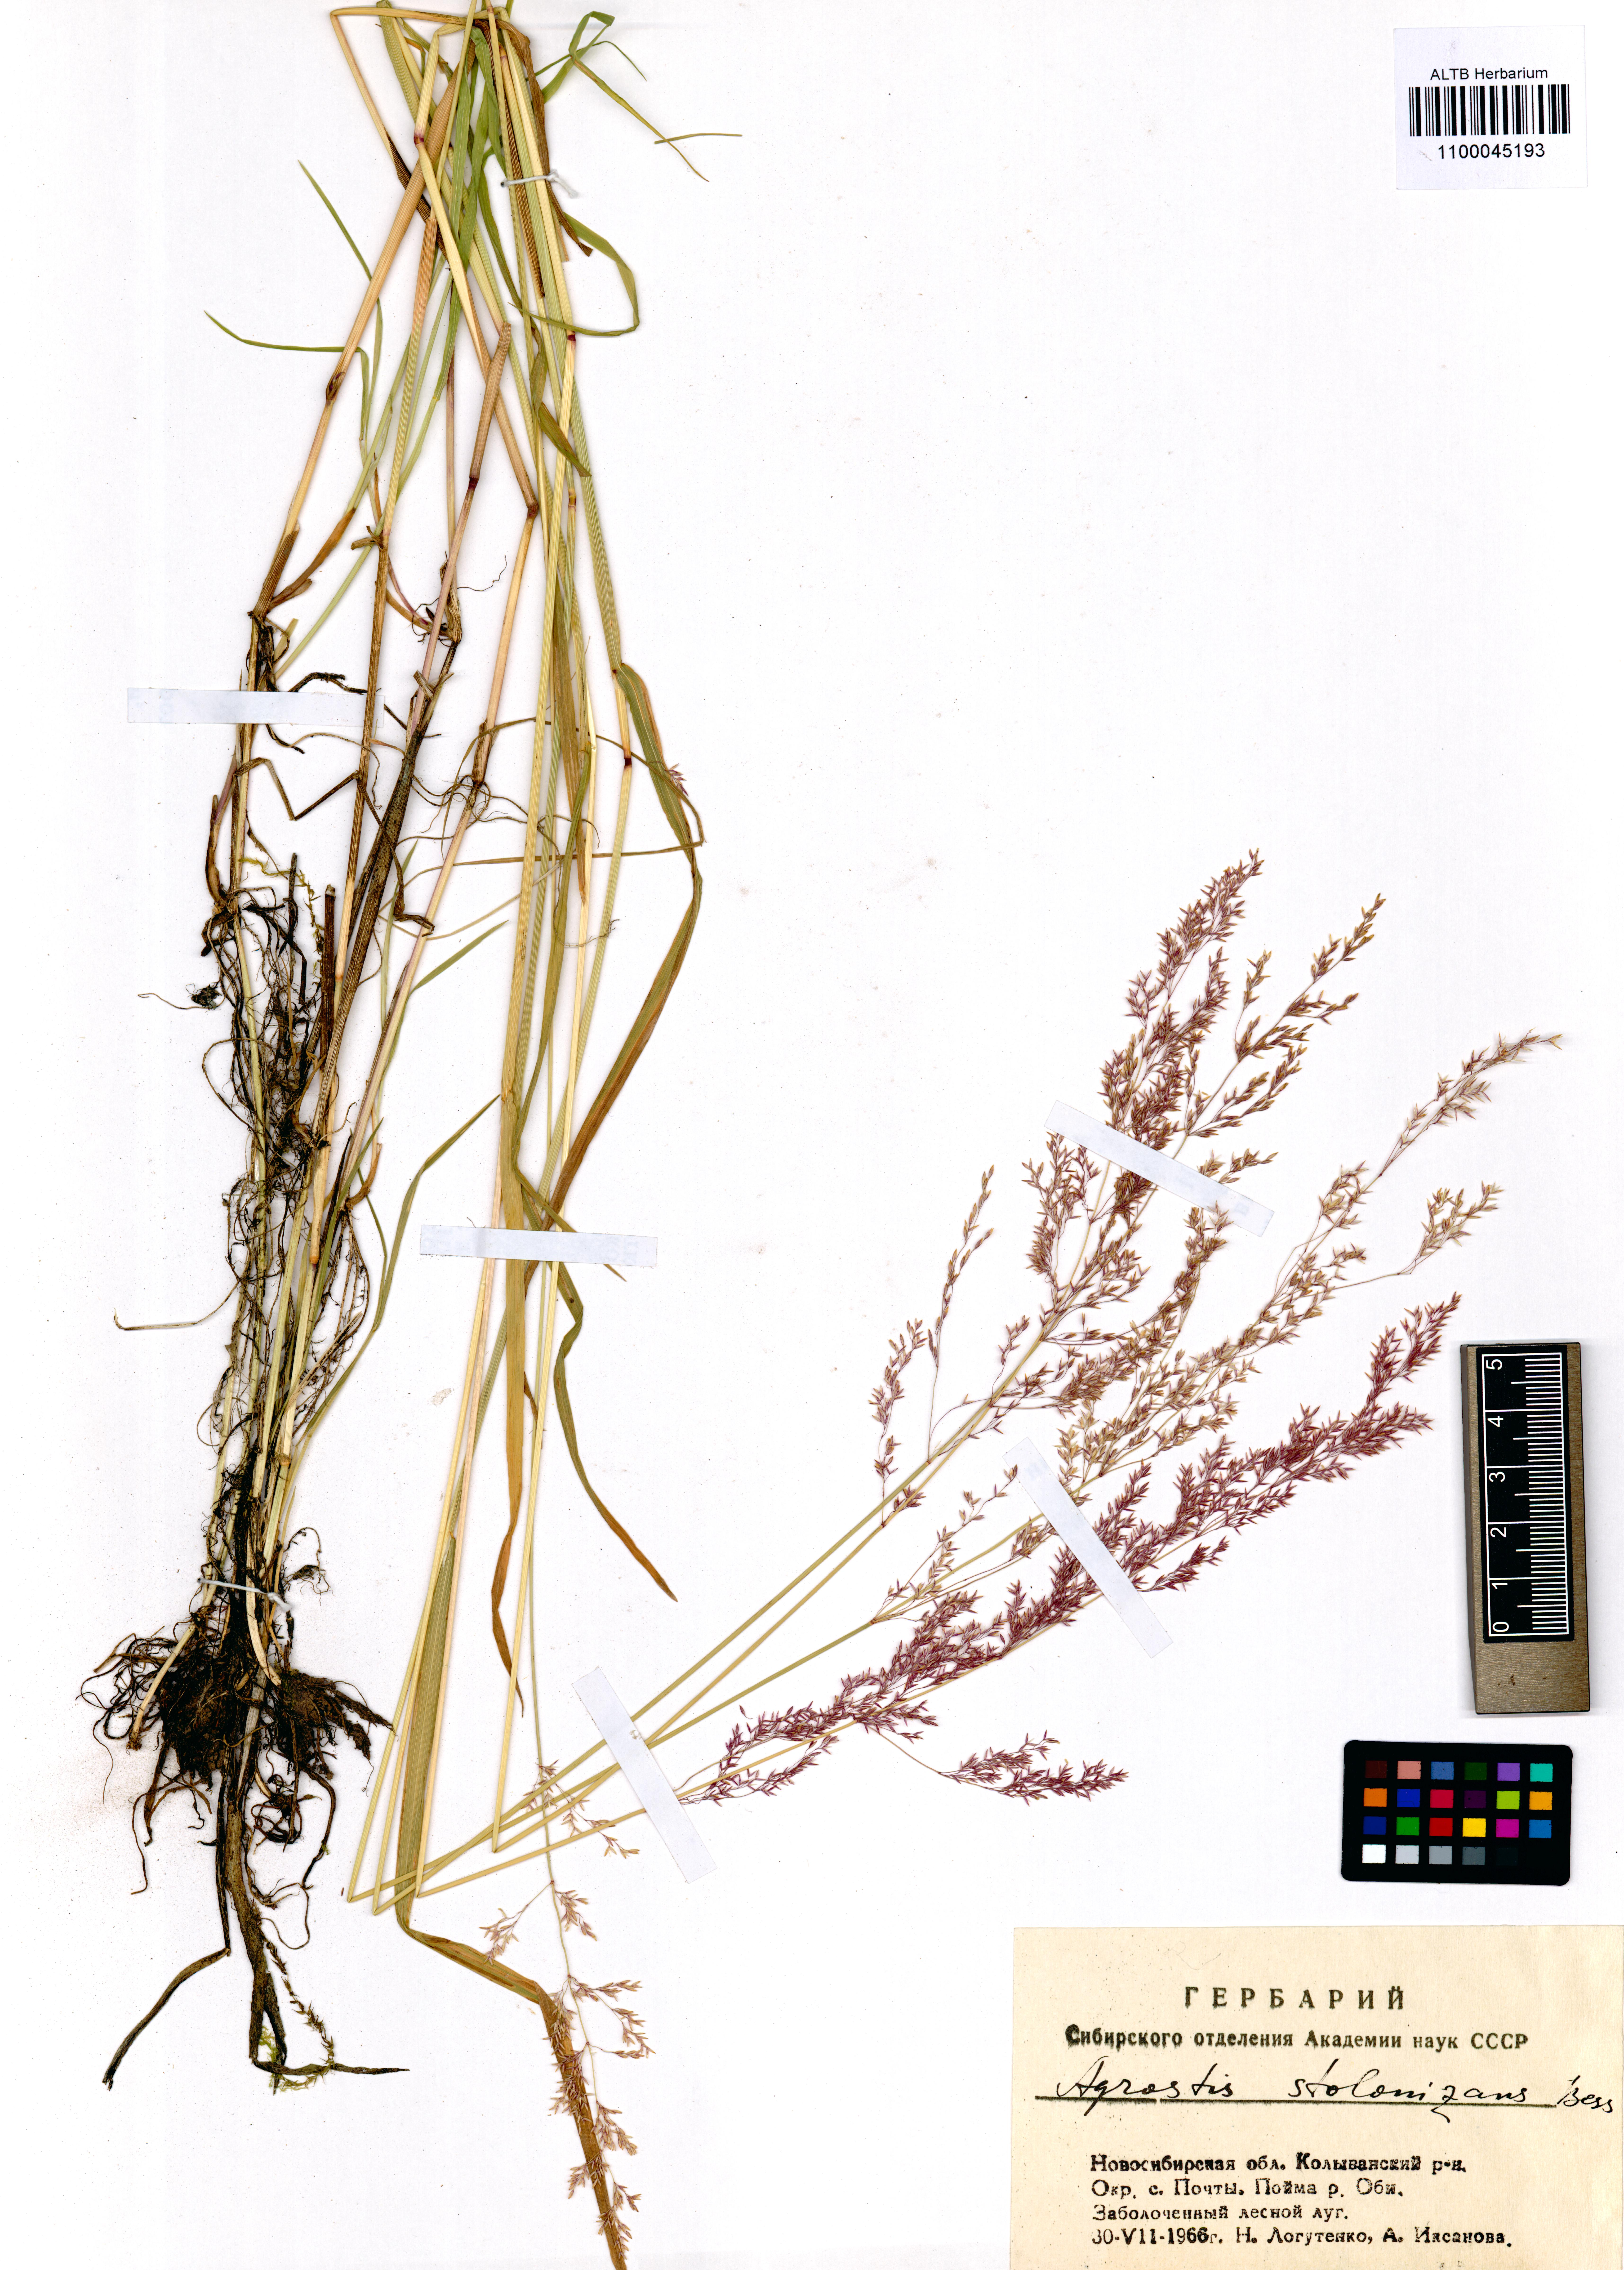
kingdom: Plantae
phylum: Tracheophyta
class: Liliopsida
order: Poales
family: Poaceae
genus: Agrostis
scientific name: Agrostis stolonifera
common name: Creeping bentgrass
